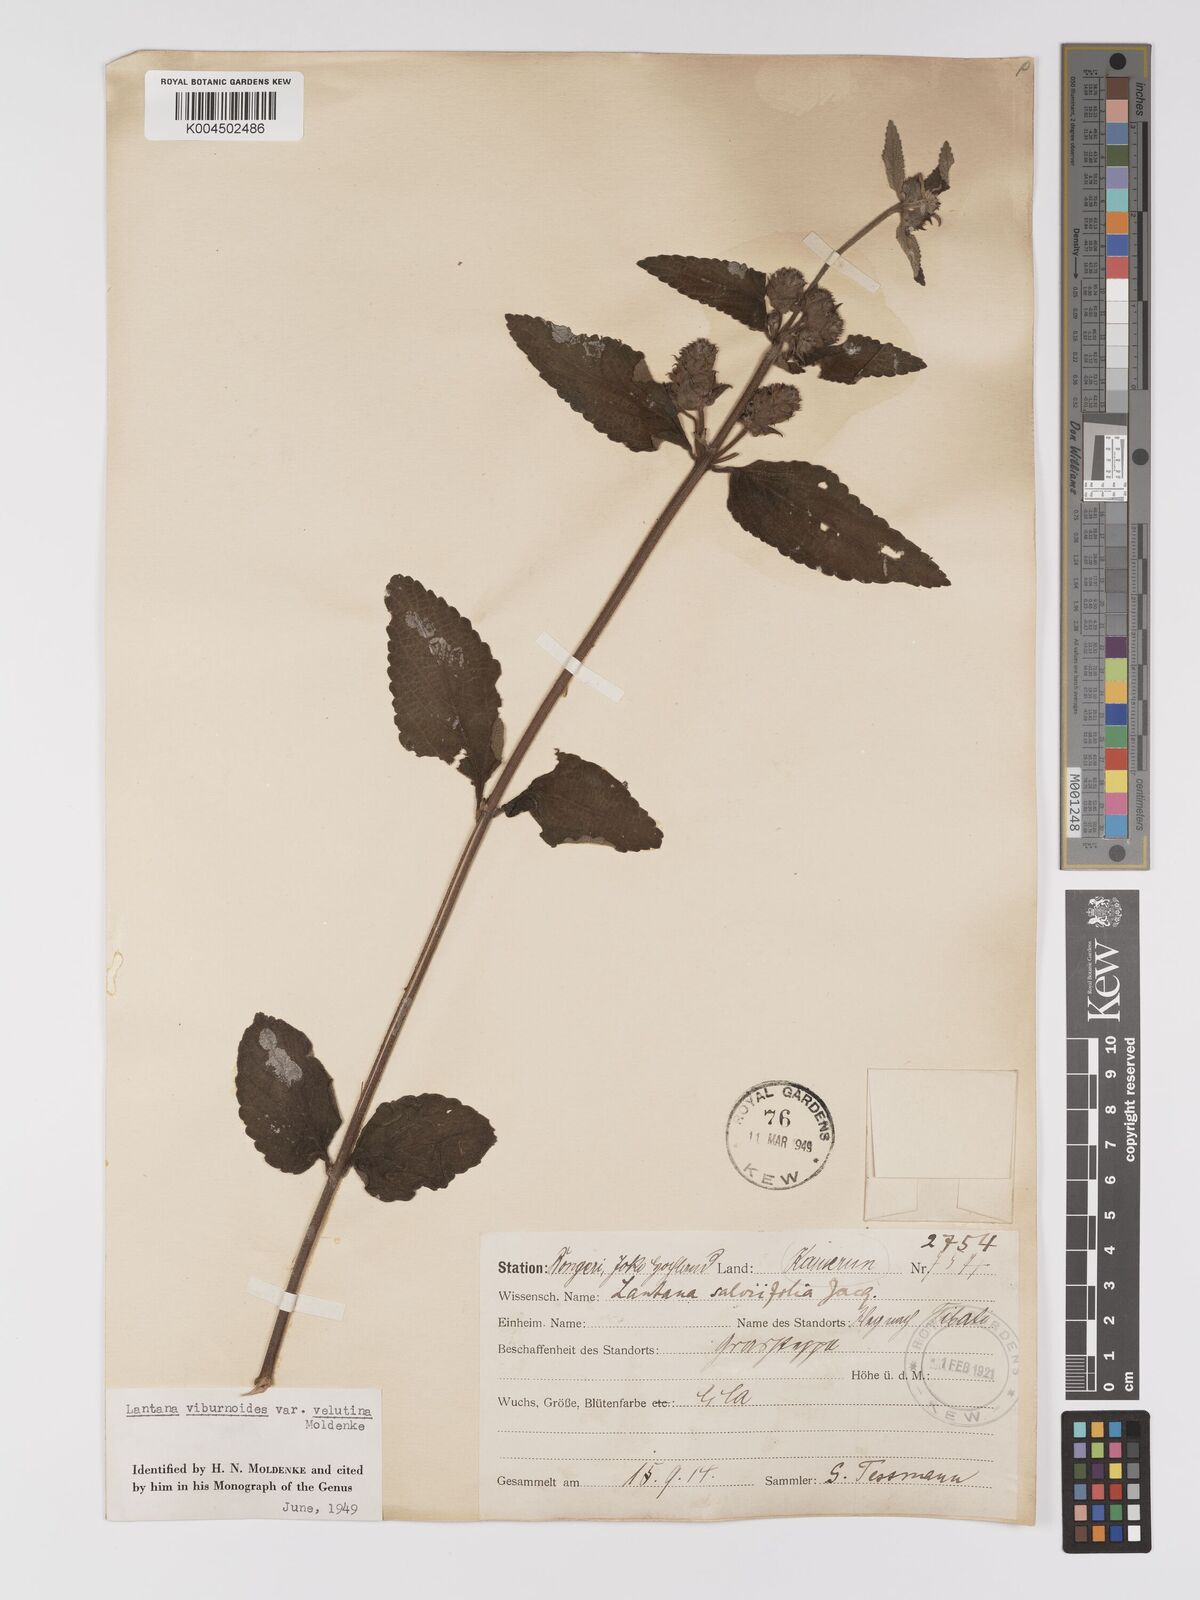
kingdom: Plantae
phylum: Tracheophyta
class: Magnoliopsida
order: Lamiales
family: Verbenaceae
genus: Lantana
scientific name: Lantana ukambensis
